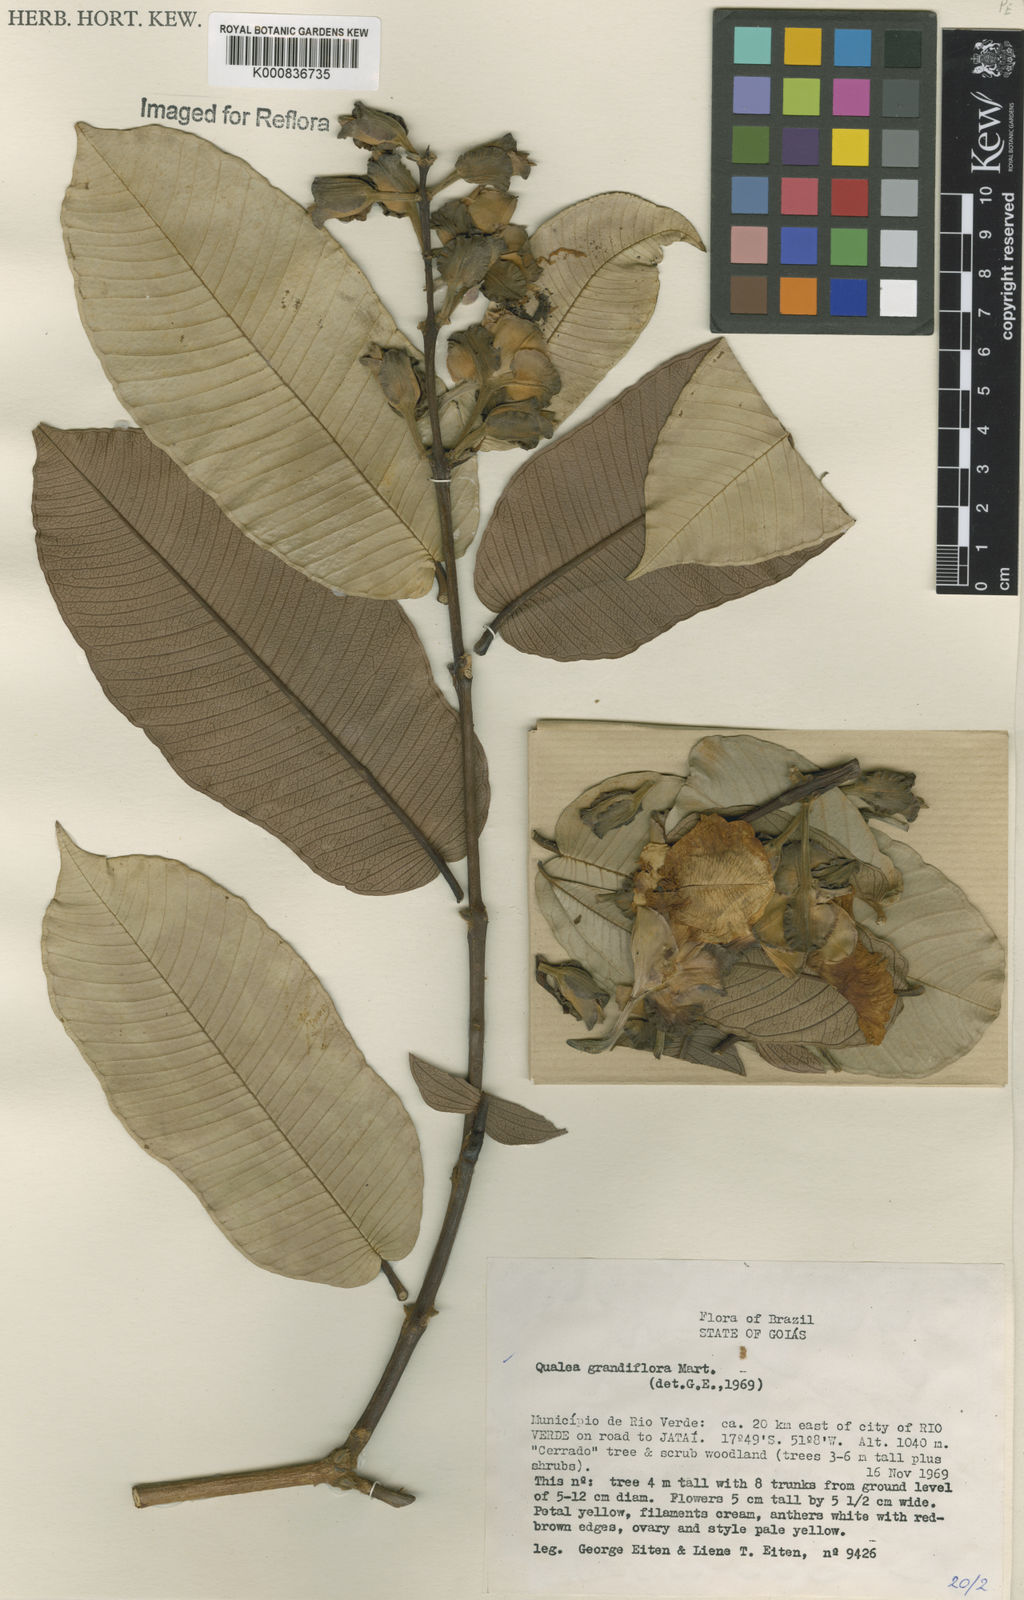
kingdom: Plantae
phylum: Tracheophyta
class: Magnoliopsida
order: Myrtales
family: Vochysiaceae
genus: Qualea
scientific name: Qualea grandiflora
